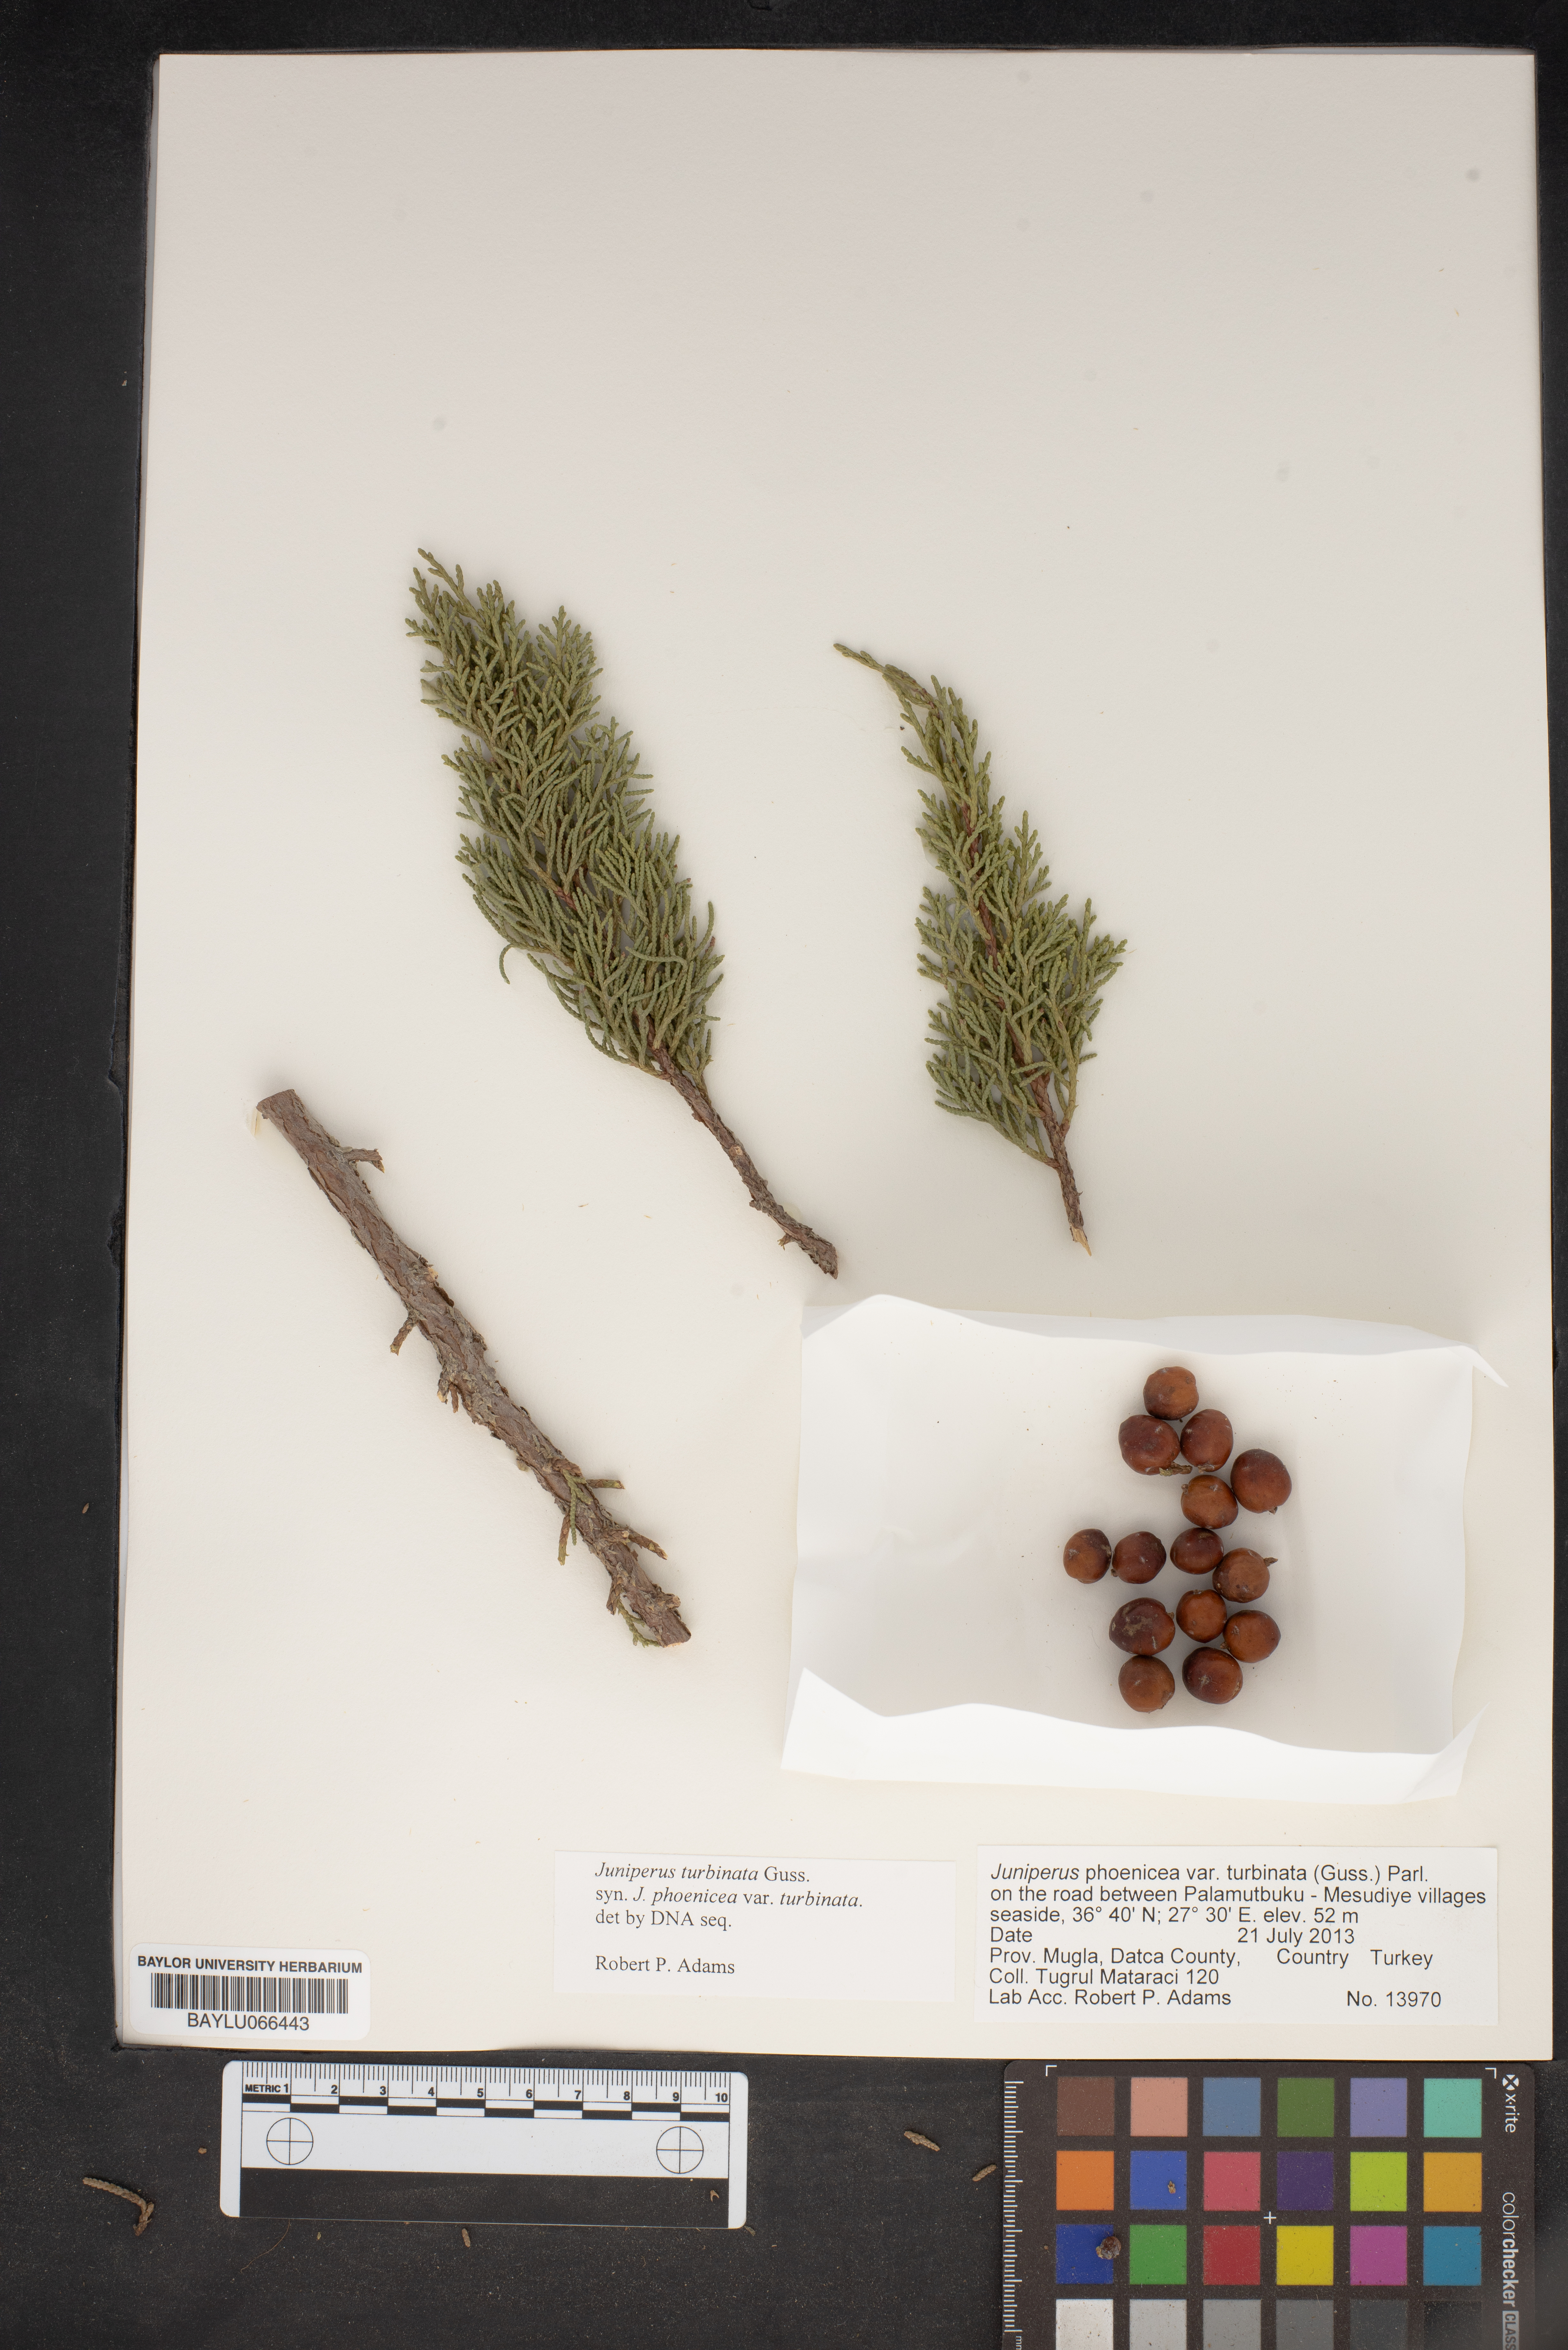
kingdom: Plantae
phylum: Tracheophyta
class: Pinopsida
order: Pinales
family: Cupressaceae
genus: Juniperus
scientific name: Juniperus phoenicea
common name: Phoenician juniper
